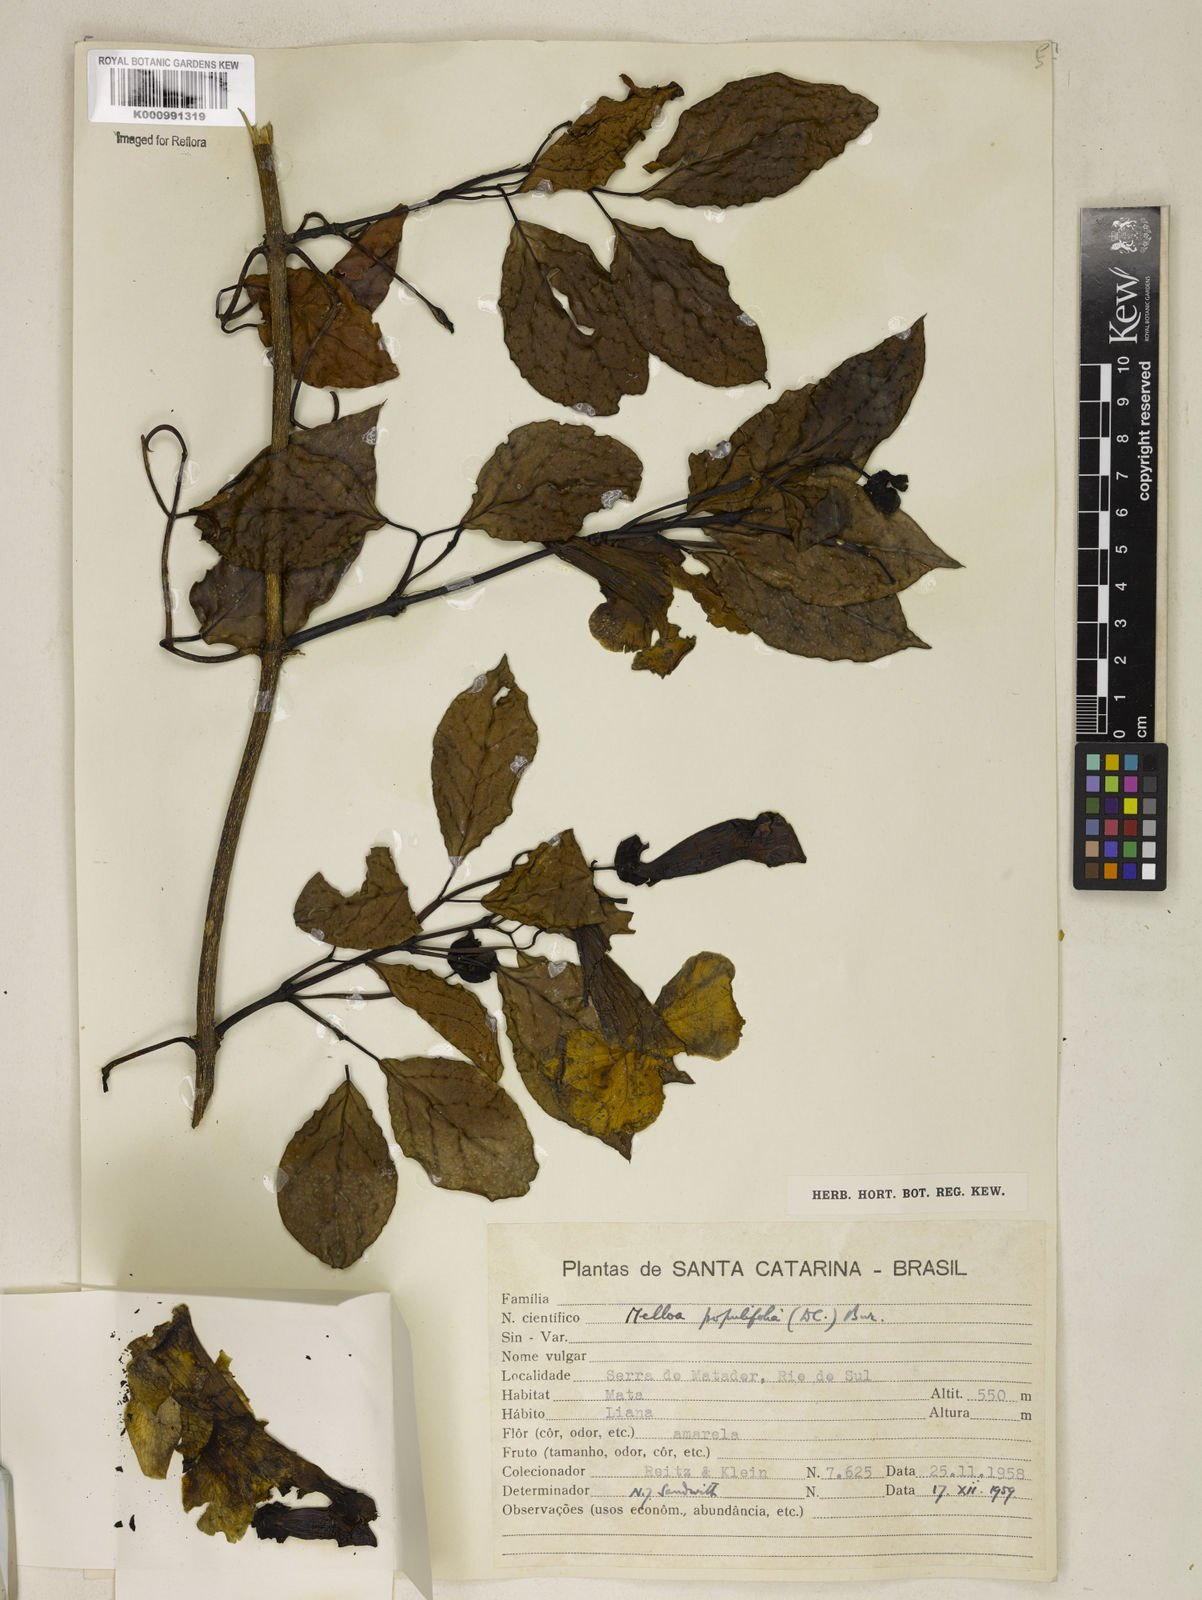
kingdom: Plantae
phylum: Tracheophyta
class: Magnoliopsida
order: Lamiales
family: Bignoniaceae
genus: Dolichandra
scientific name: Dolichandra quadrivalvis
